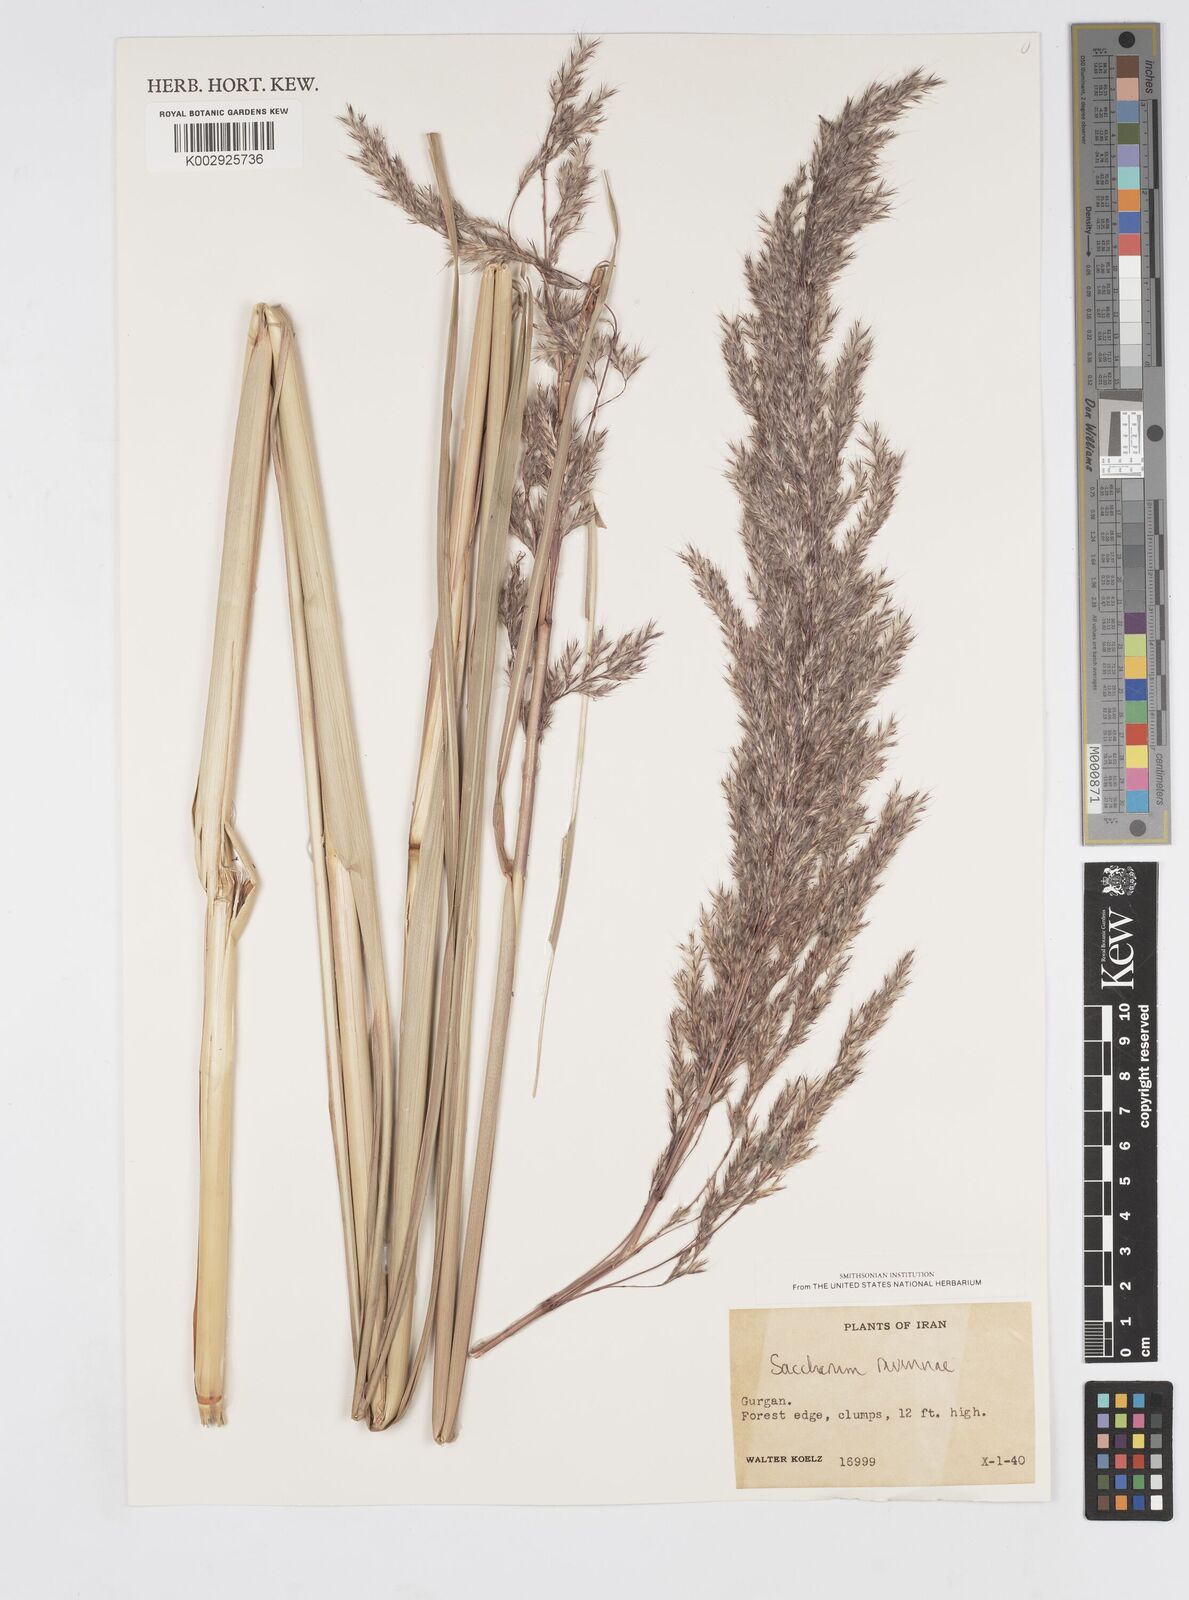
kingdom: Plantae
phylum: Tracheophyta
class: Liliopsida
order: Poales
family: Poaceae
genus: Tripidium
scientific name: Tripidium ravennae
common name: Ravenna grass
